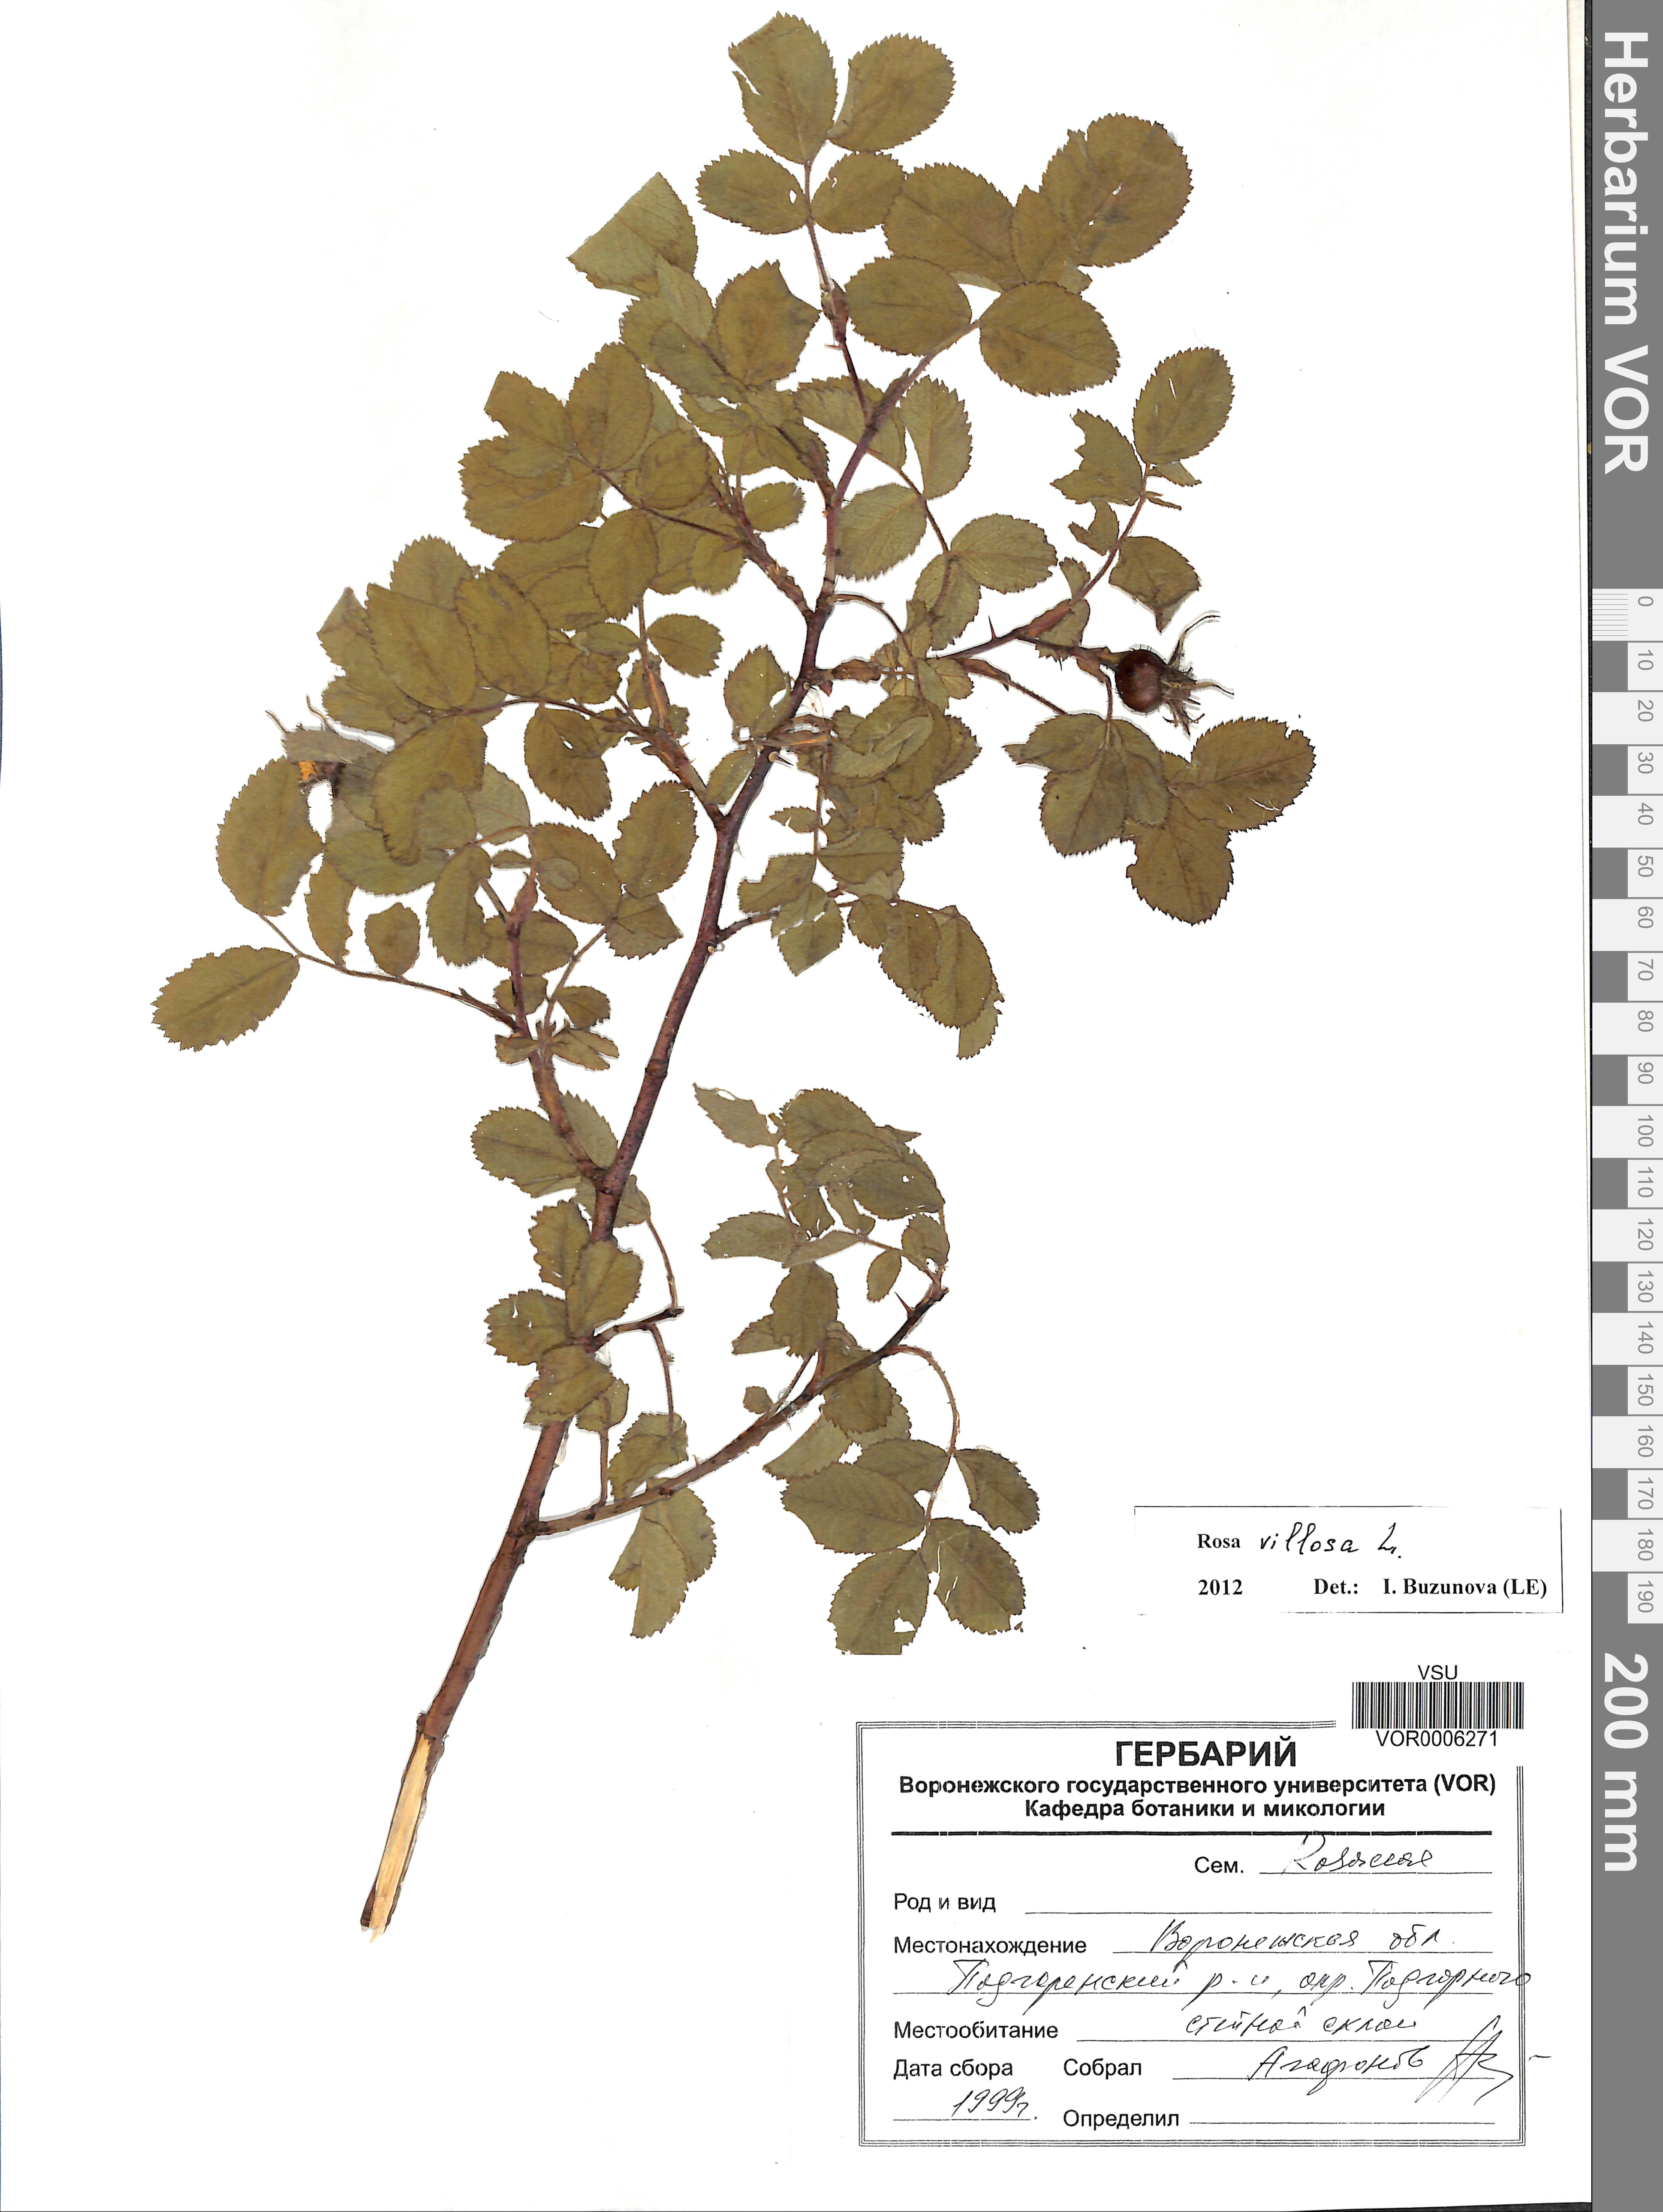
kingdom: Plantae
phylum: Tracheophyta
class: Magnoliopsida
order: Rosales
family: Rosaceae
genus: Rosa
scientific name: Rosa villosa
